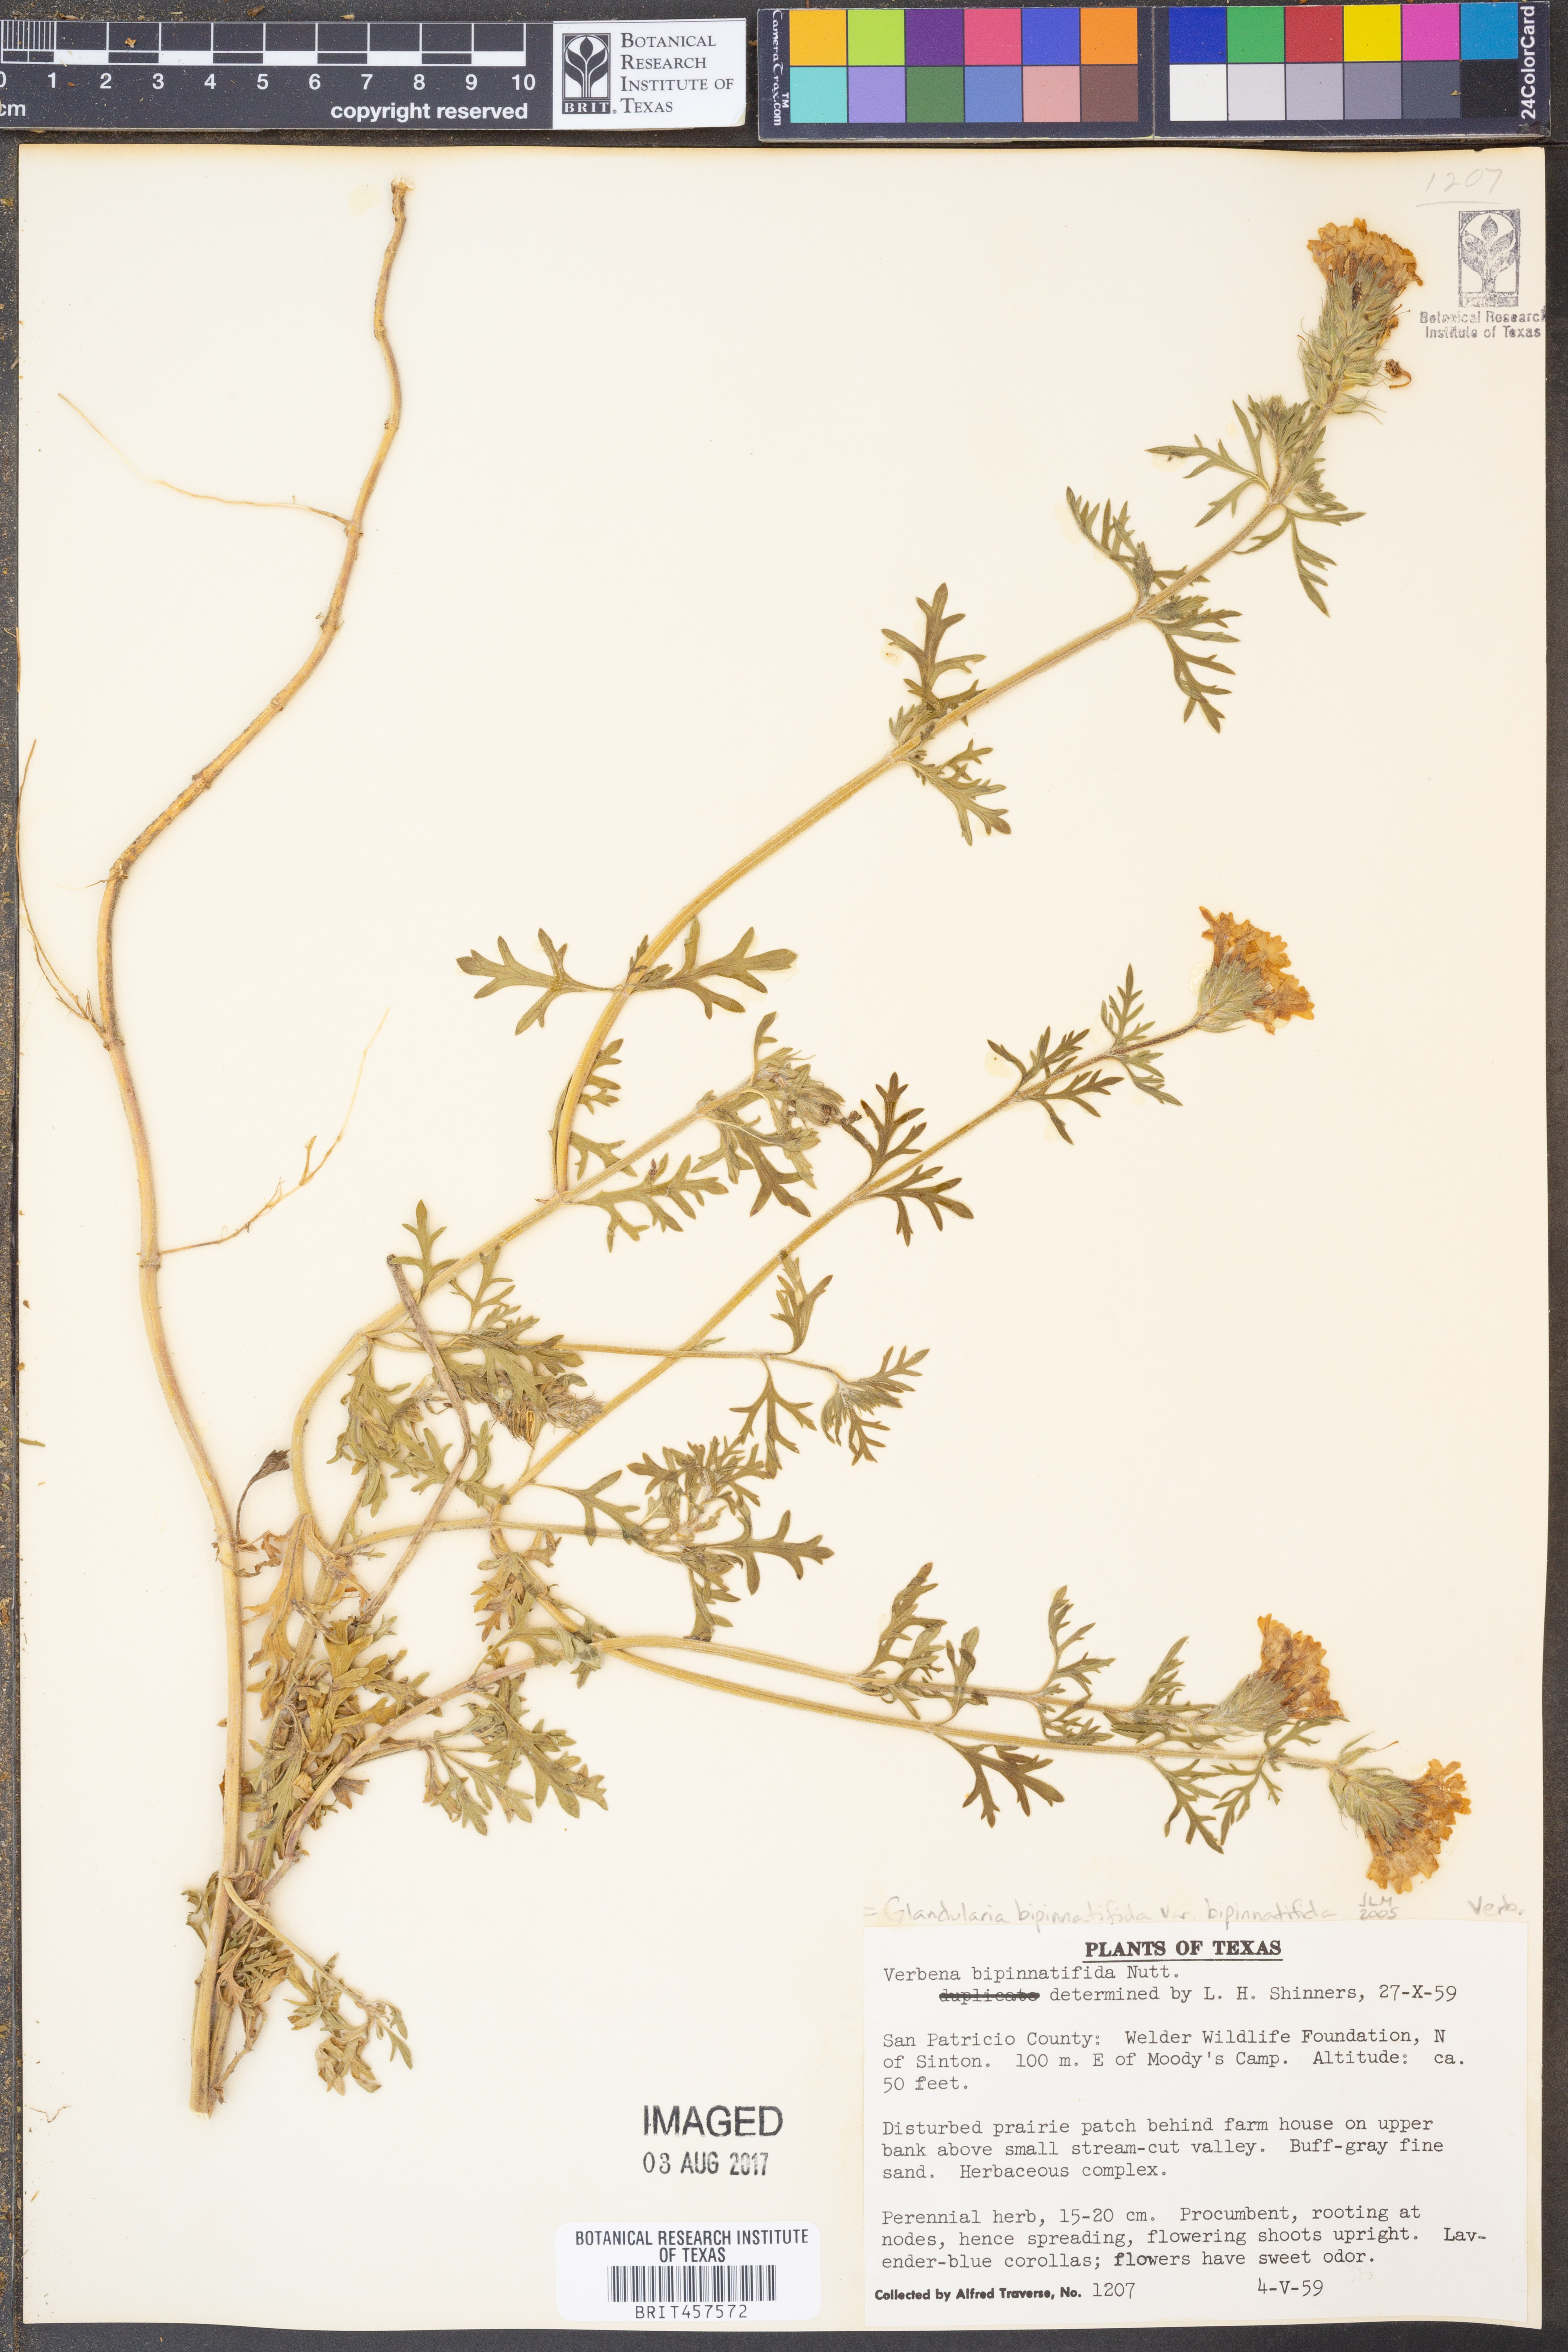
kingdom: Plantae
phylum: Tracheophyta
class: Magnoliopsida
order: Lamiales
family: Verbenaceae
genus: Verbena
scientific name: Verbena bipinnatifida
